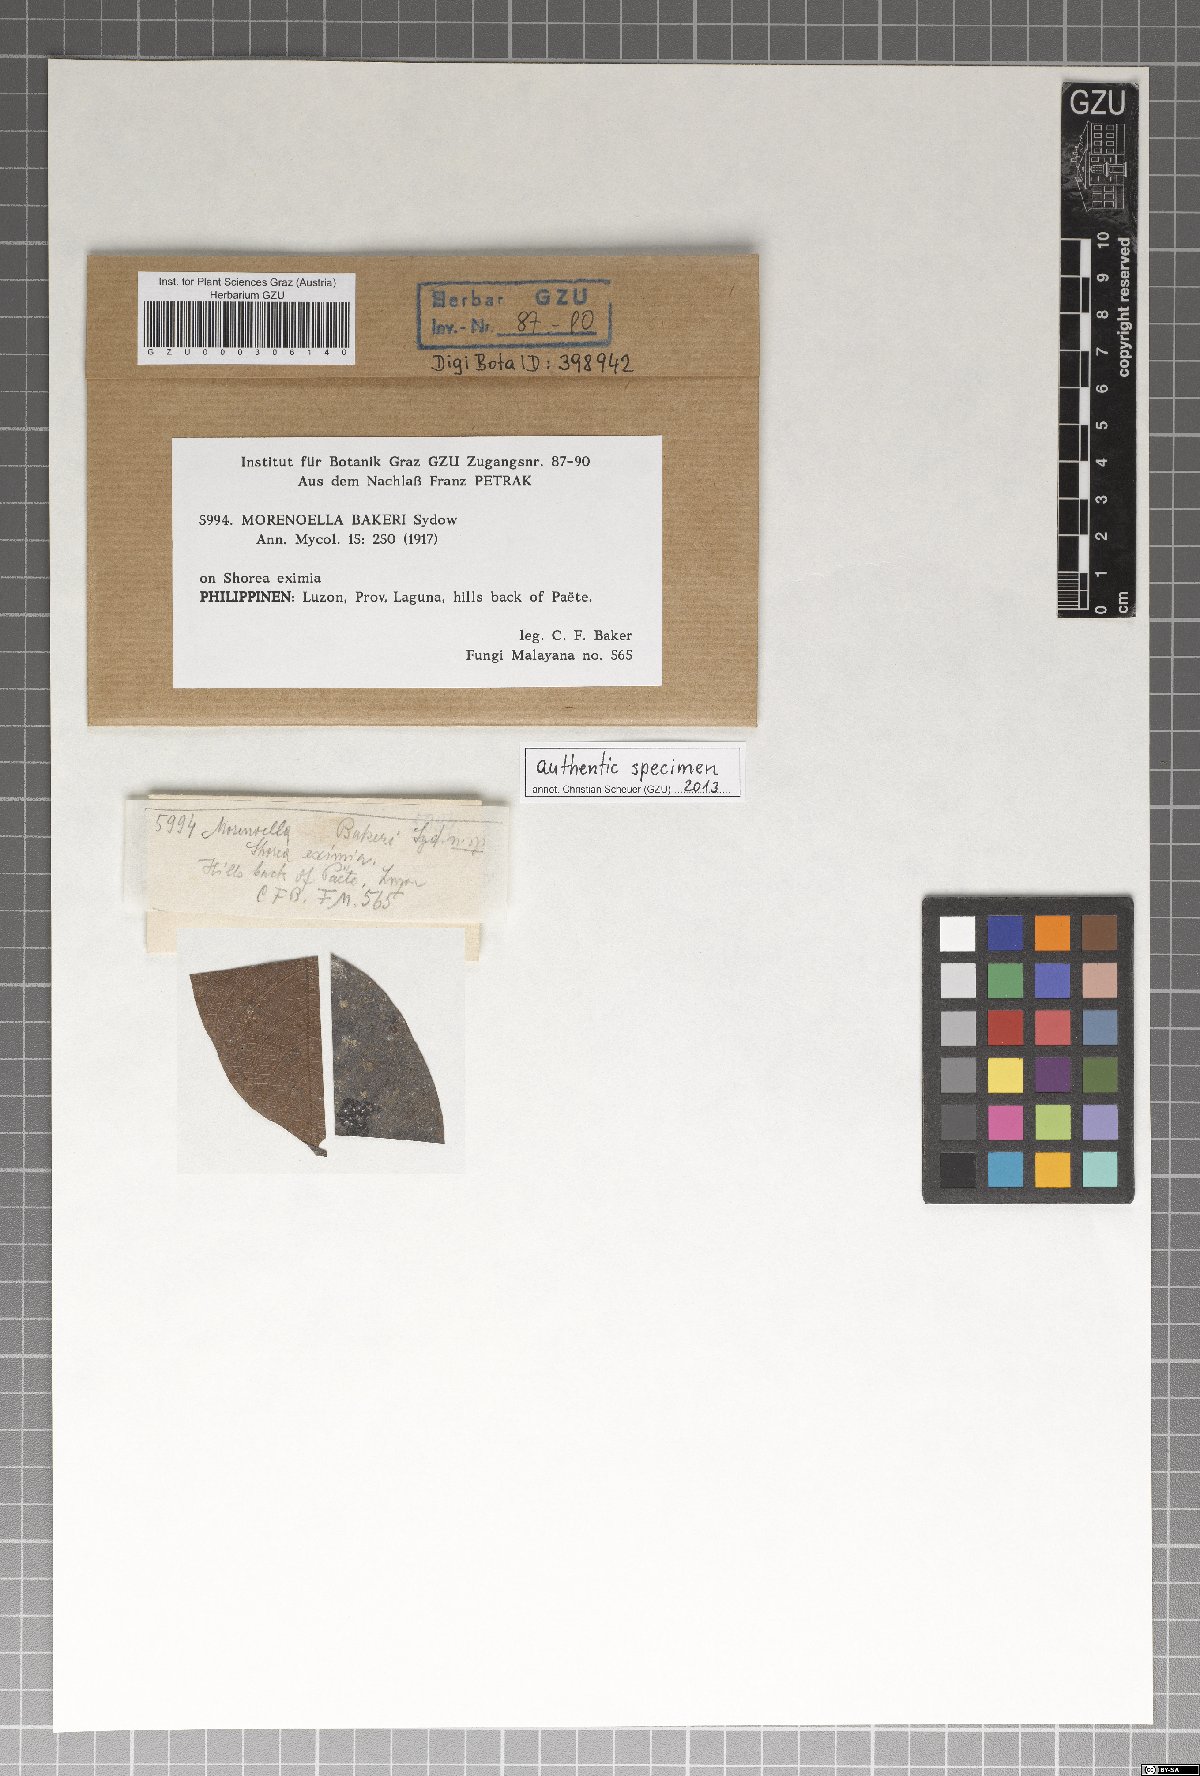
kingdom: Fungi
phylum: Ascomycota
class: Dothideomycetes
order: Asterinales
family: Asterinaceae
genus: Lembosia
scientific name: Lembosia bakeri
